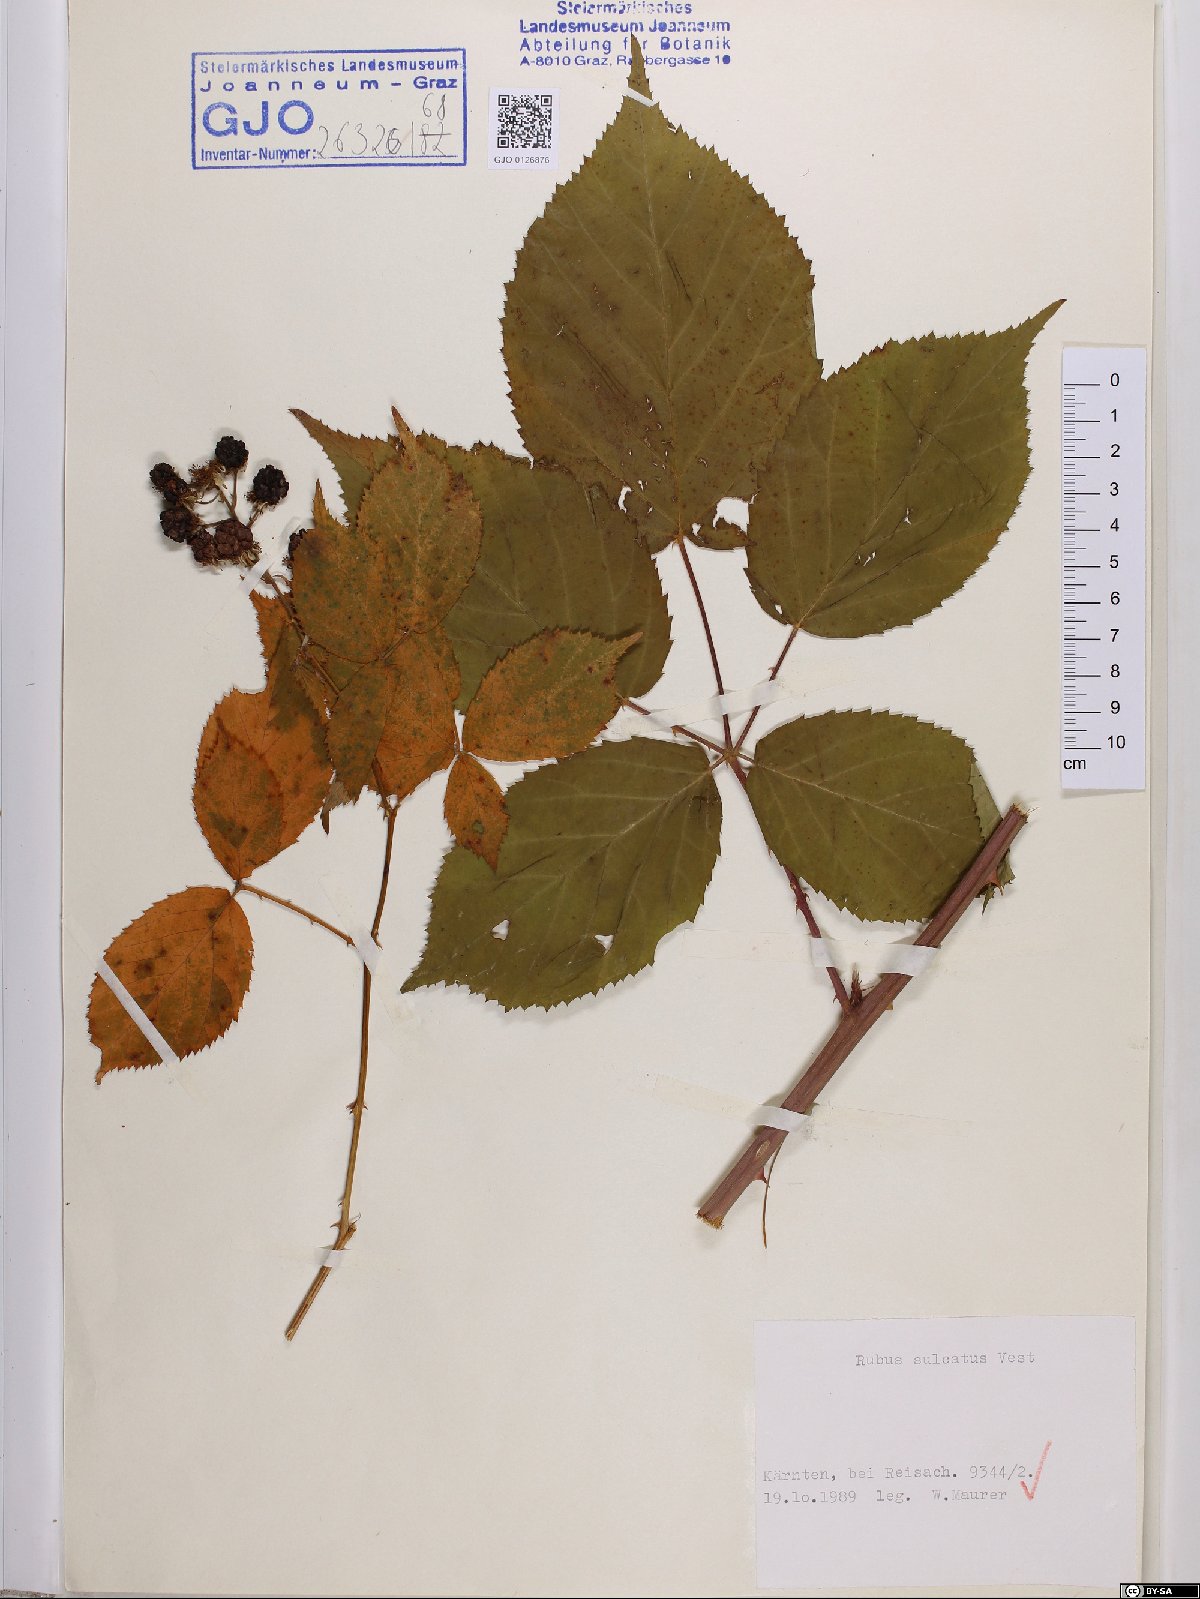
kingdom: Plantae
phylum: Tracheophyta
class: Magnoliopsida
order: Rosales
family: Rosaceae
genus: Rubus
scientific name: Rubus sulcatus
